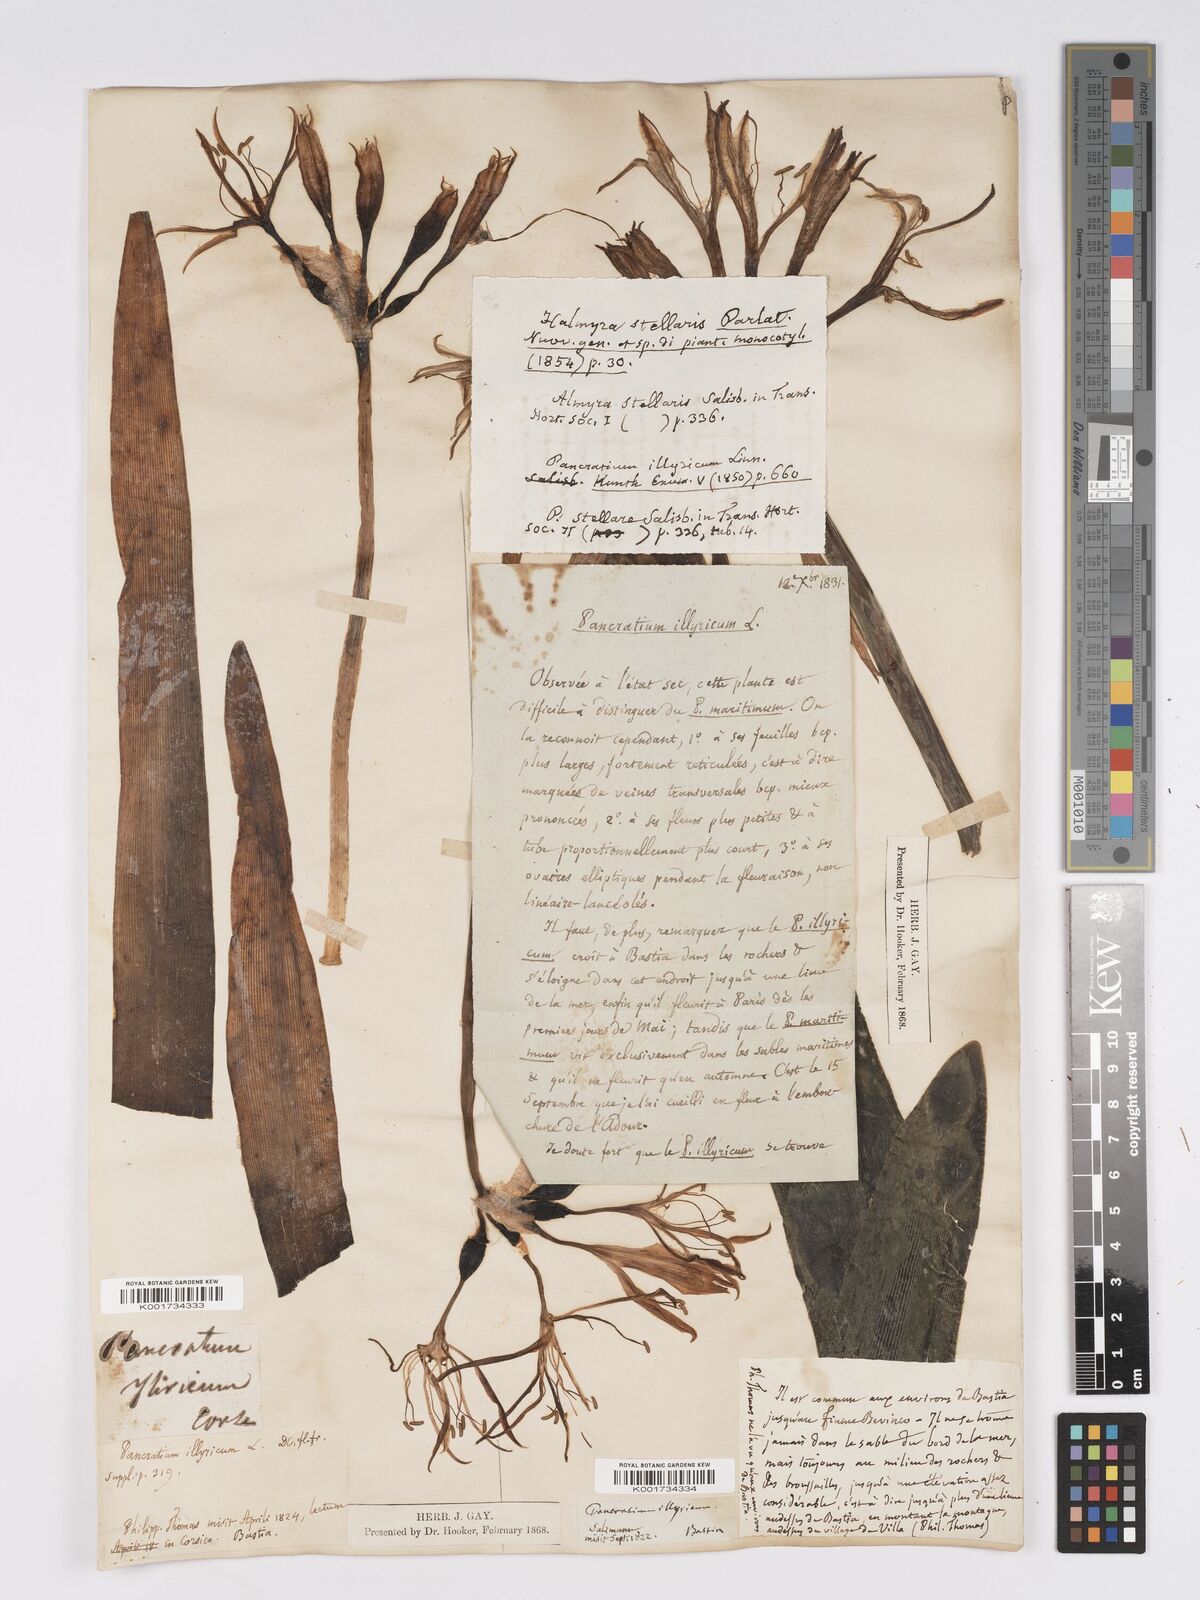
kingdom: Plantae
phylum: Tracheophyta
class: Liliopsida
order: Asparagales
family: Amaryllidaceae
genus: Pancratium
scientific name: Pancratium illyricum
